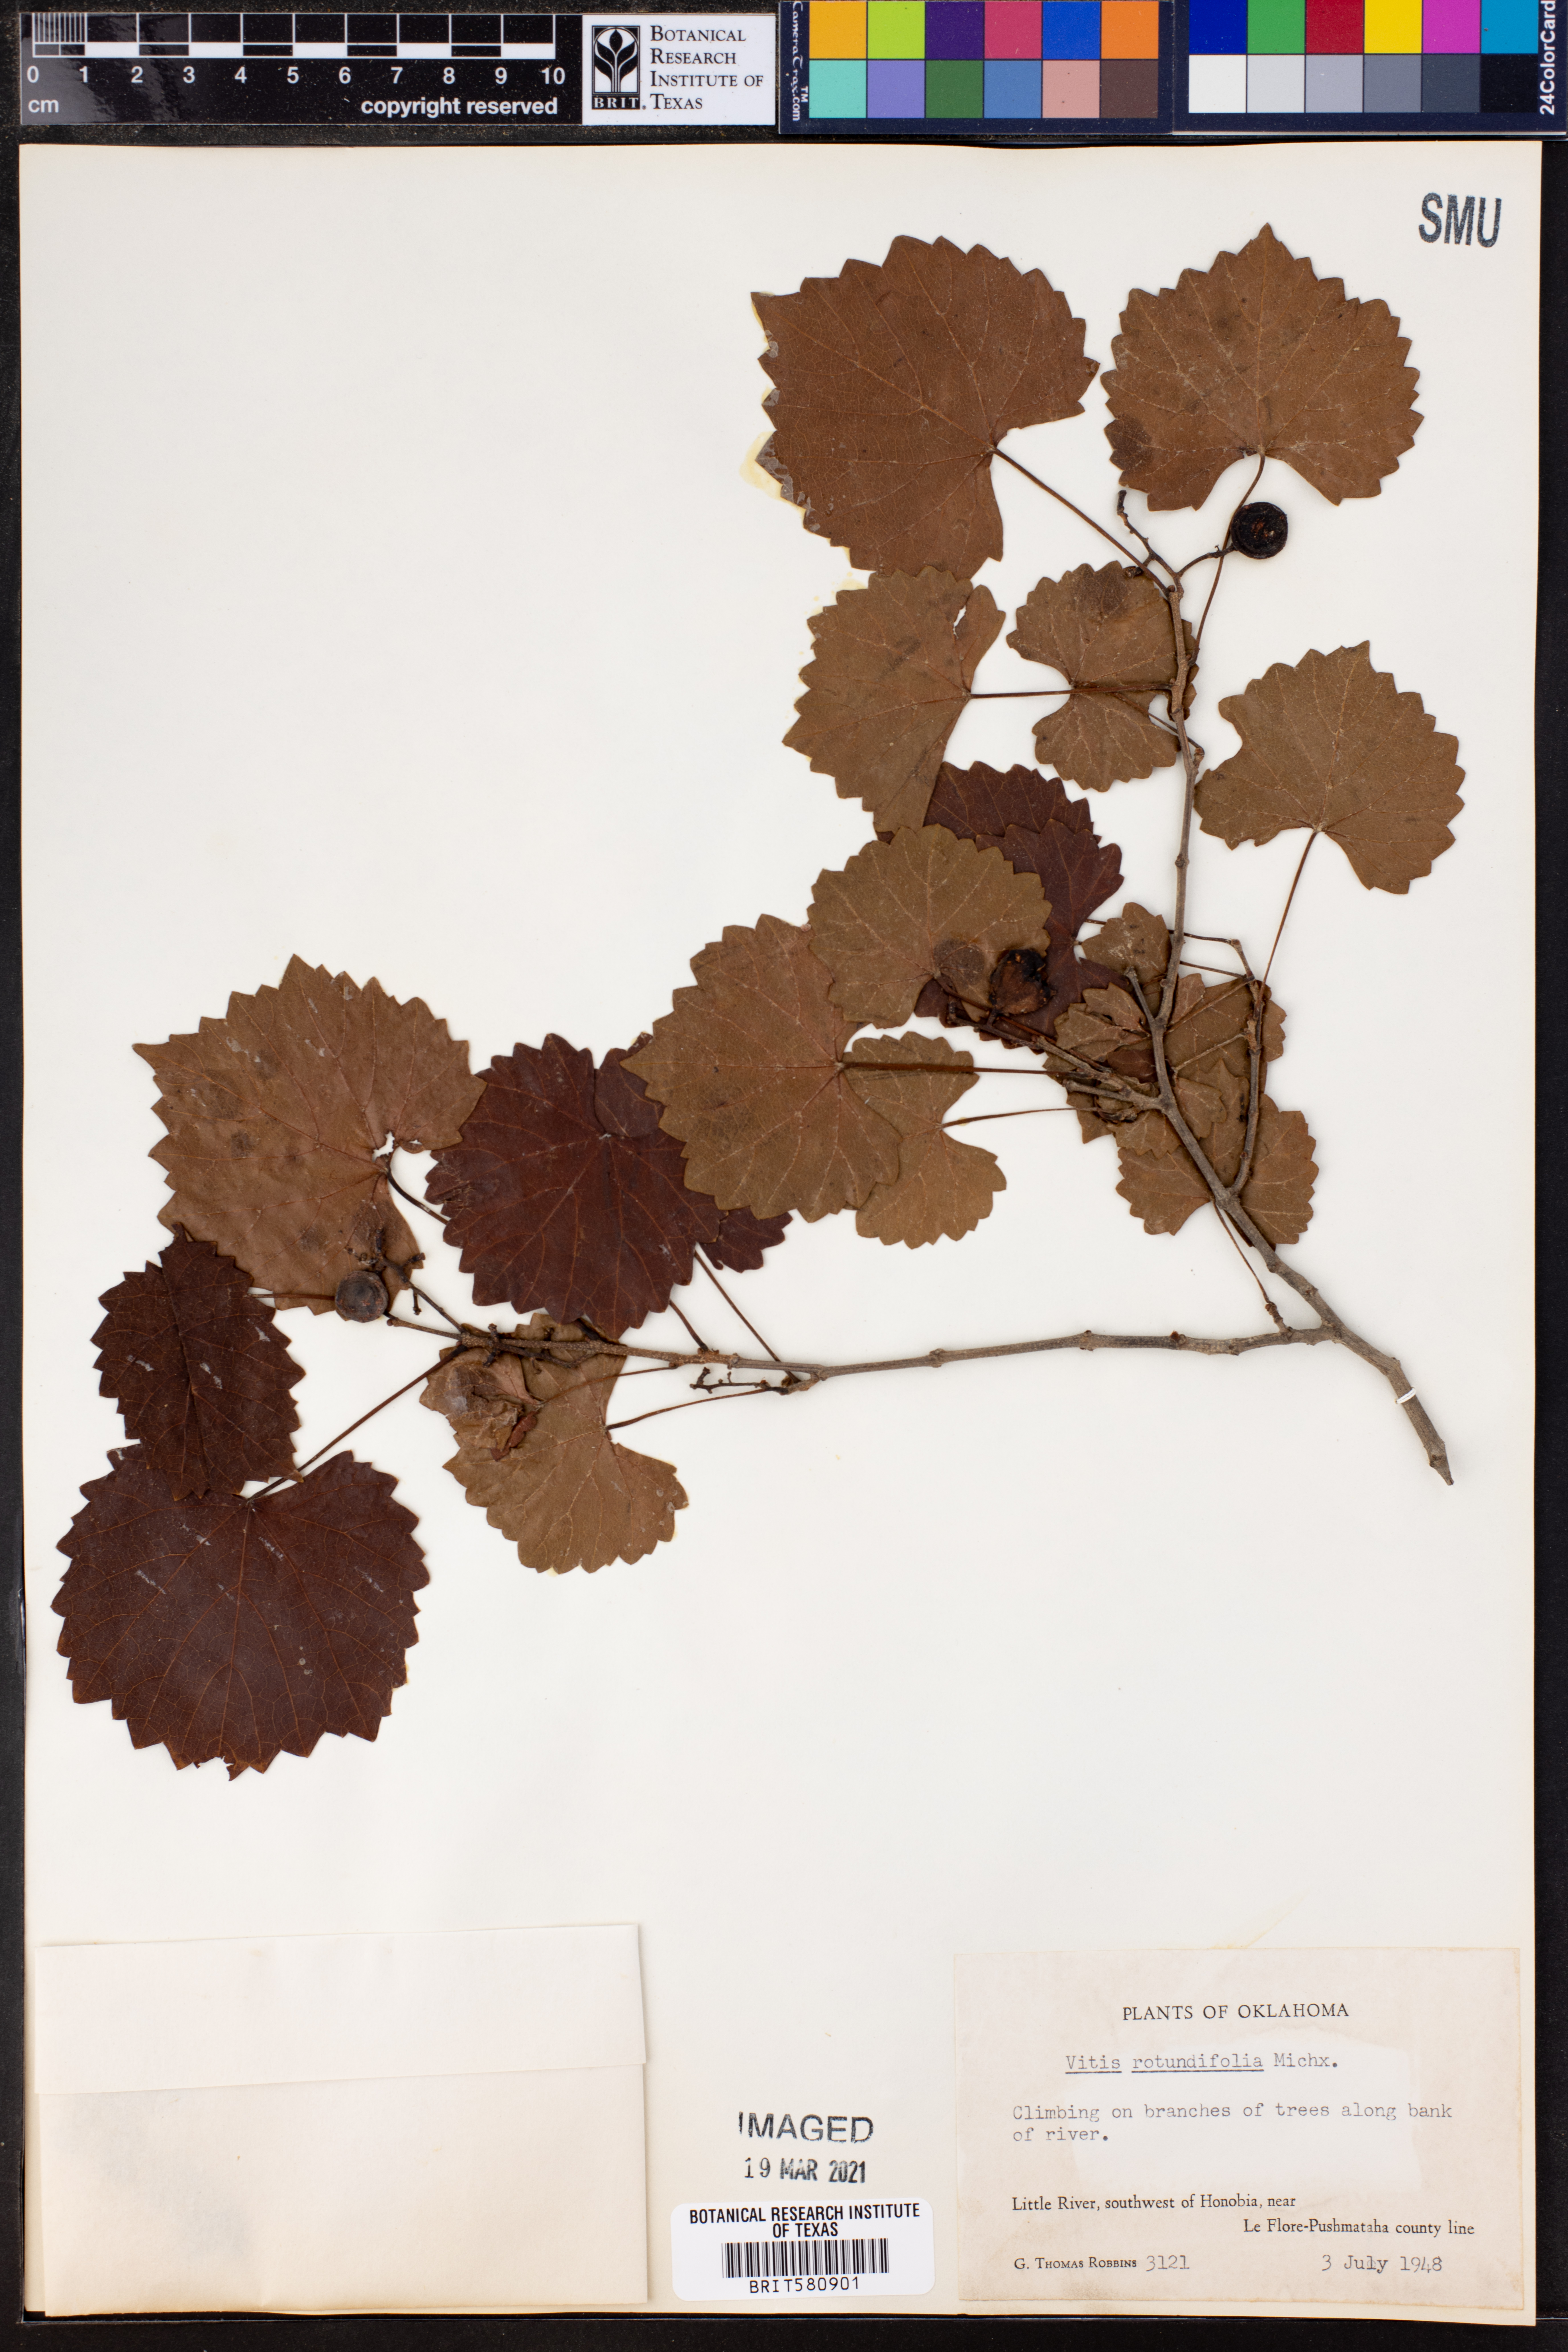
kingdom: Plantae
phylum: Tracheophyta
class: Magnoliopsida
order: Vitales
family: Vitaceae
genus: Vitis
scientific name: Vitis rotundifolia
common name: Muscadine grape
